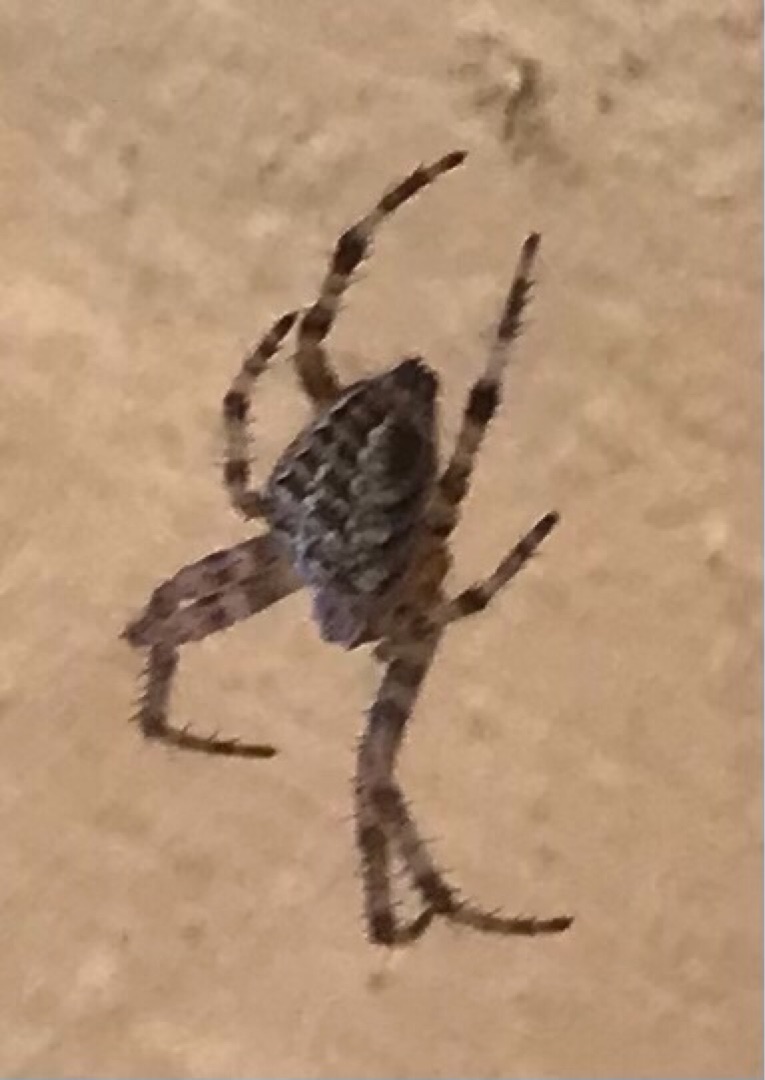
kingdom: Animalia
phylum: Arthropoda
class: Arachnida
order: Araneae
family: Araneidae
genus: Araneus
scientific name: Araneus diadematus
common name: Korsedderkop
